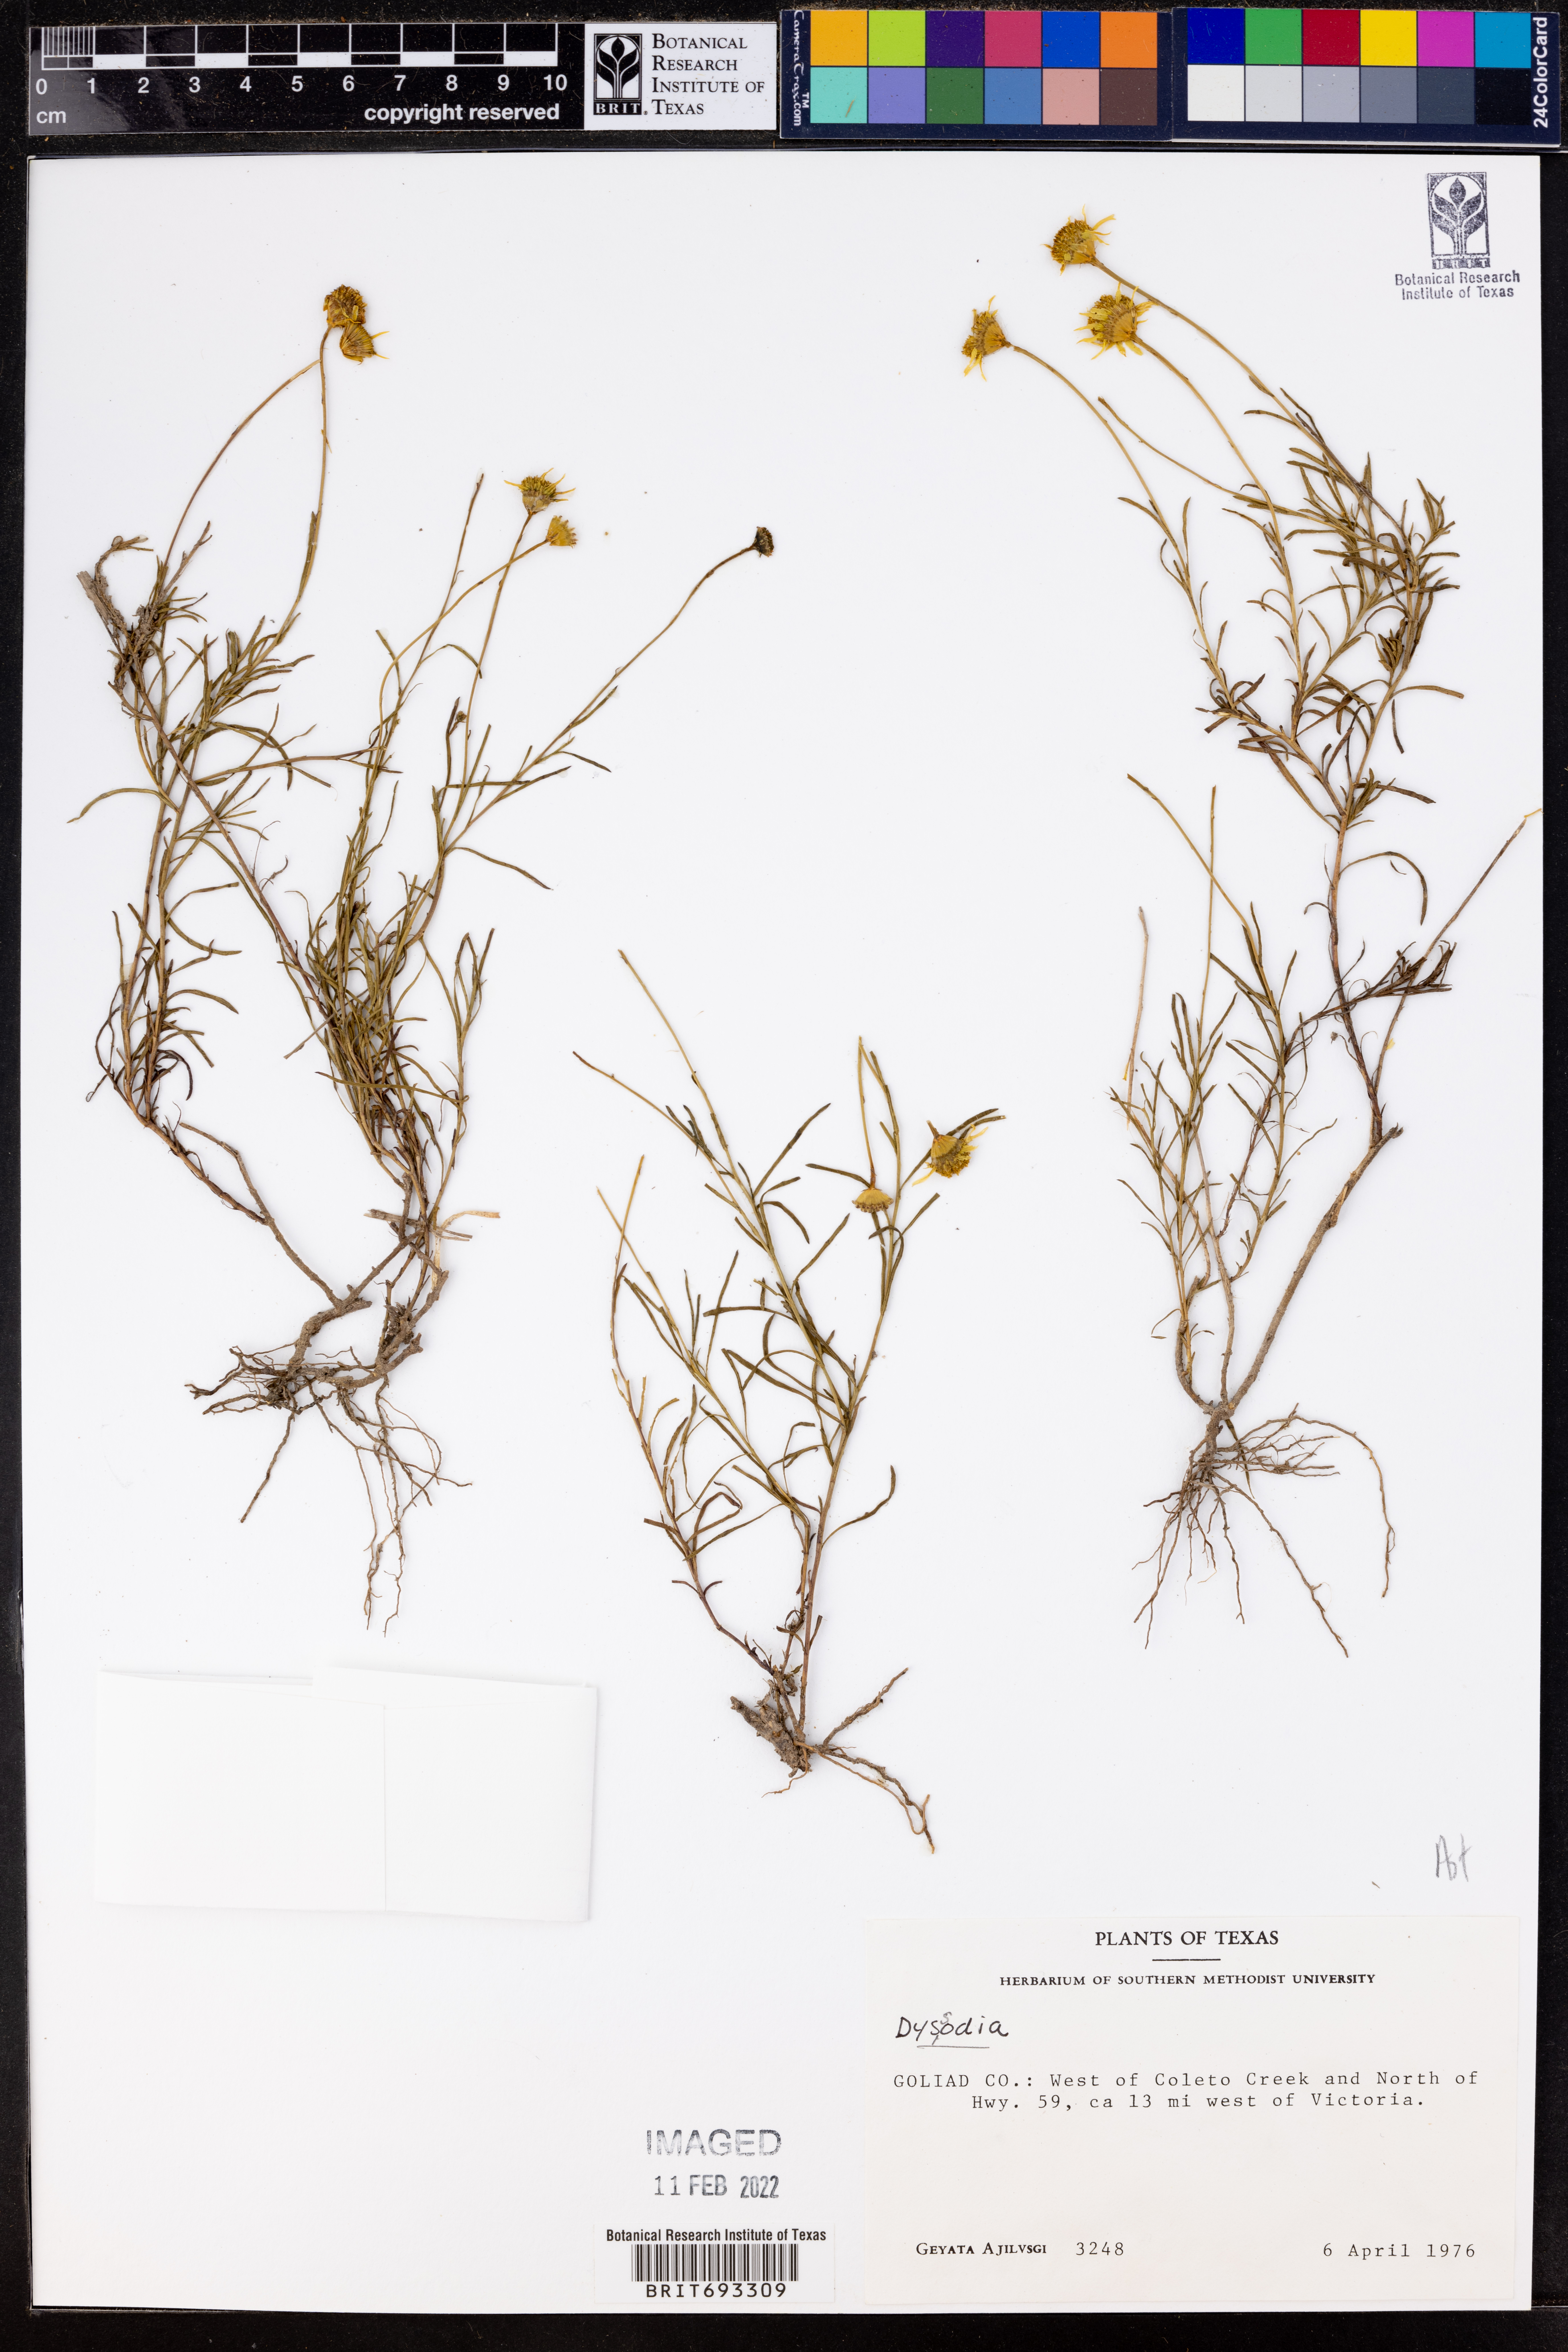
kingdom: Plantae
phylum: Tracheophyta
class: Magnoliopsida
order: Asterales
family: Asteraceae
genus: Dyssodia
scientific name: Dyssodia
